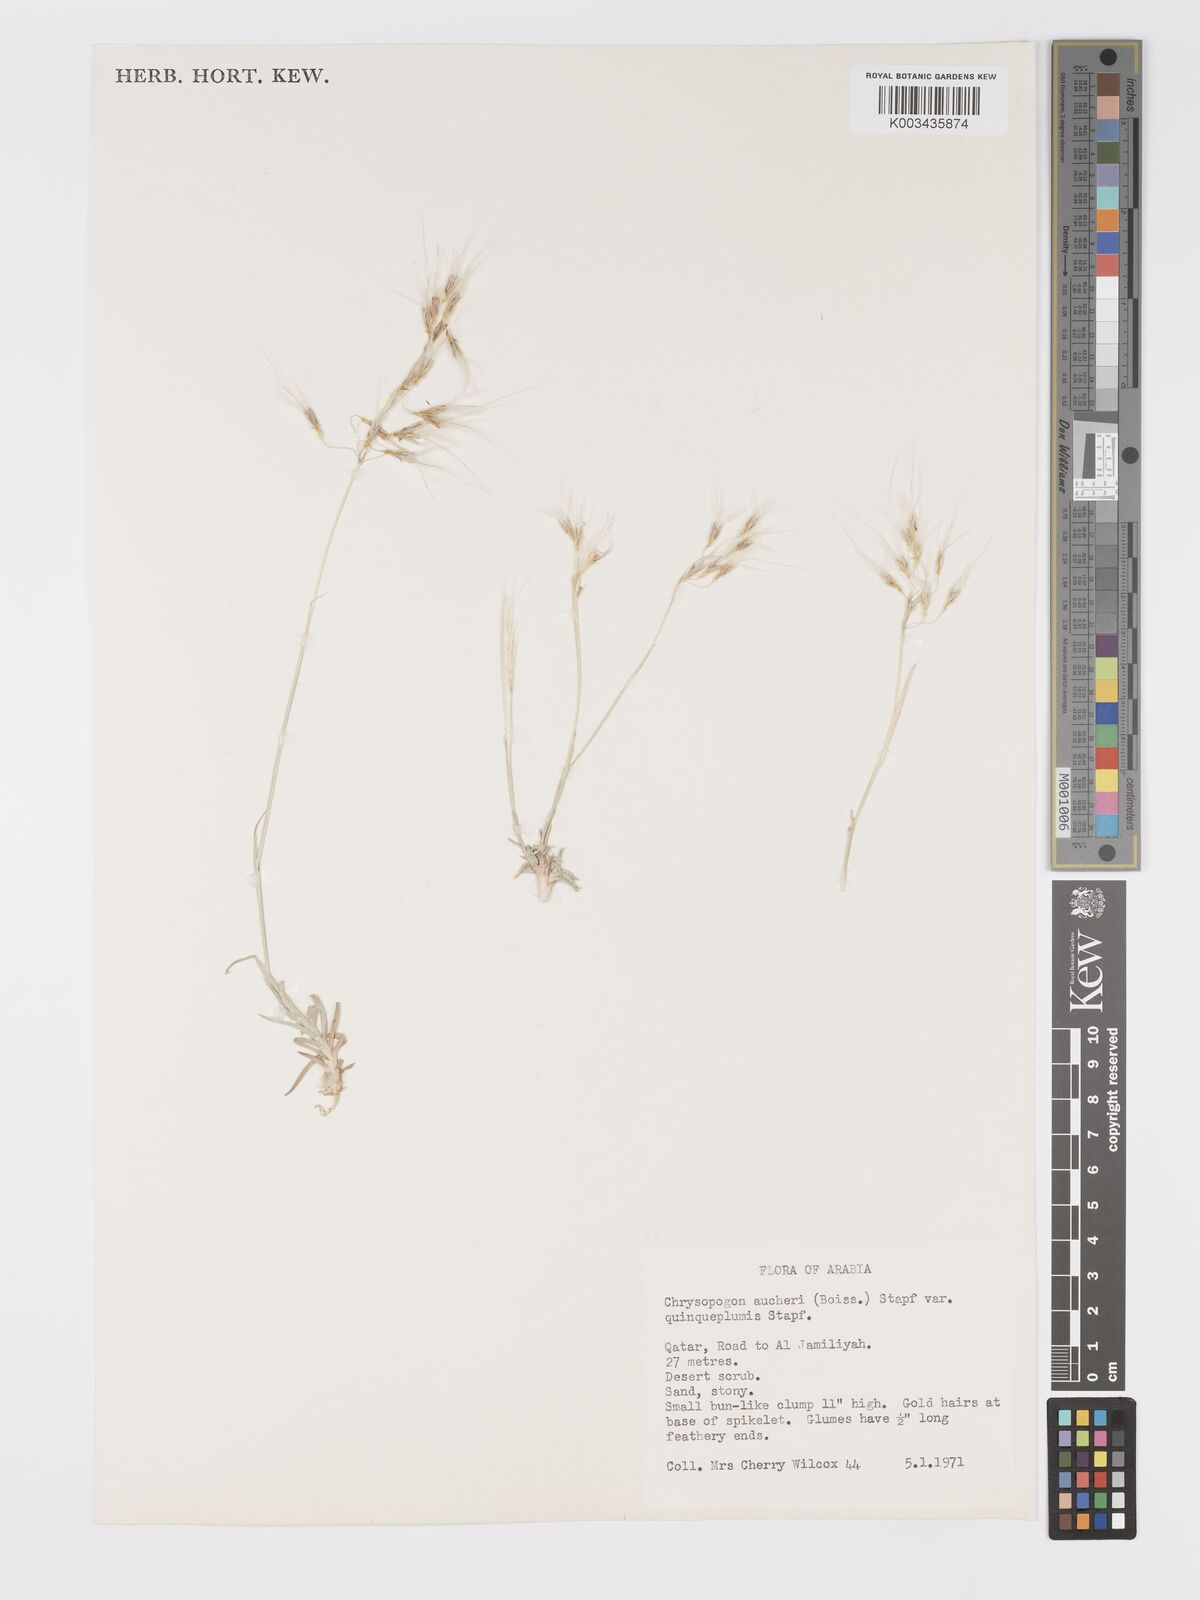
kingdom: Plantae
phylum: Tracheophyta
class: Liliopsida
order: Poales
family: Poaceae
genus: Chrysopogon
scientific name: Chrysopogon plumulosus
